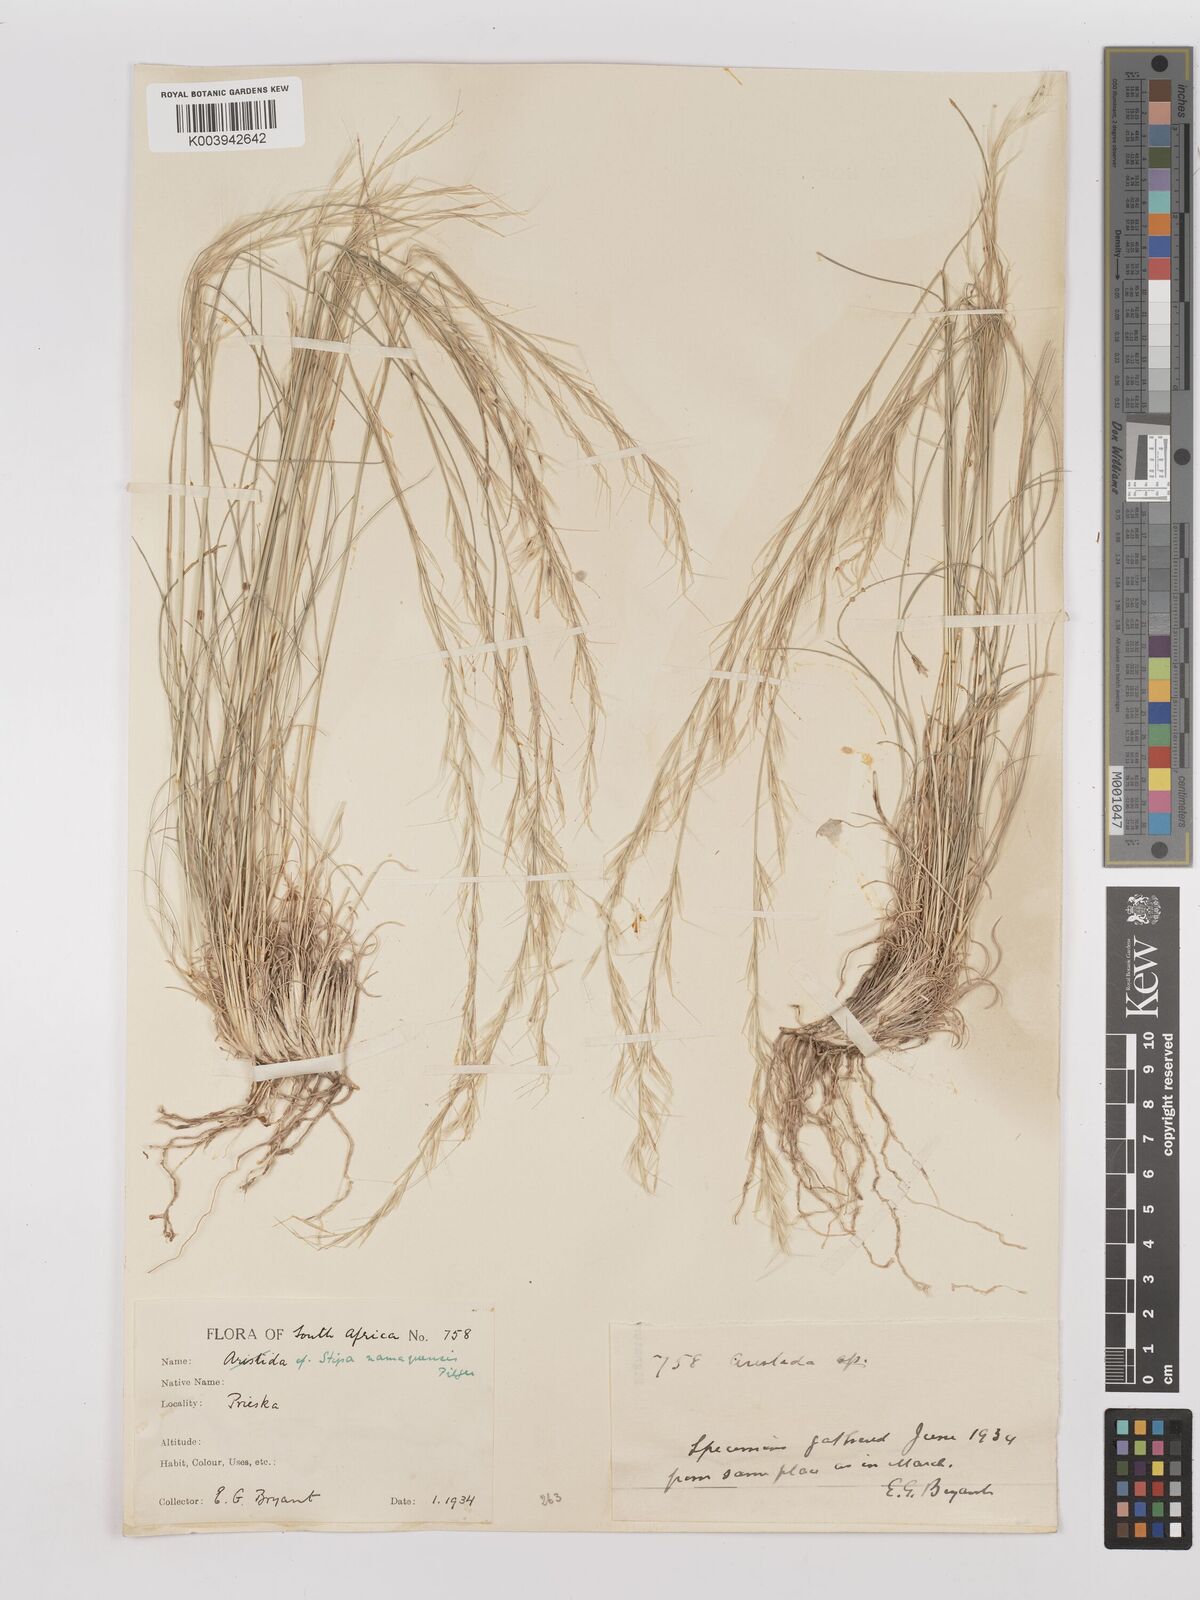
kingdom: Plantae
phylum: Tracheophyta
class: Liliopsida
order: Poales
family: Poaceae
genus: Stipagrostis
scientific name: Stipagrostis anomala
